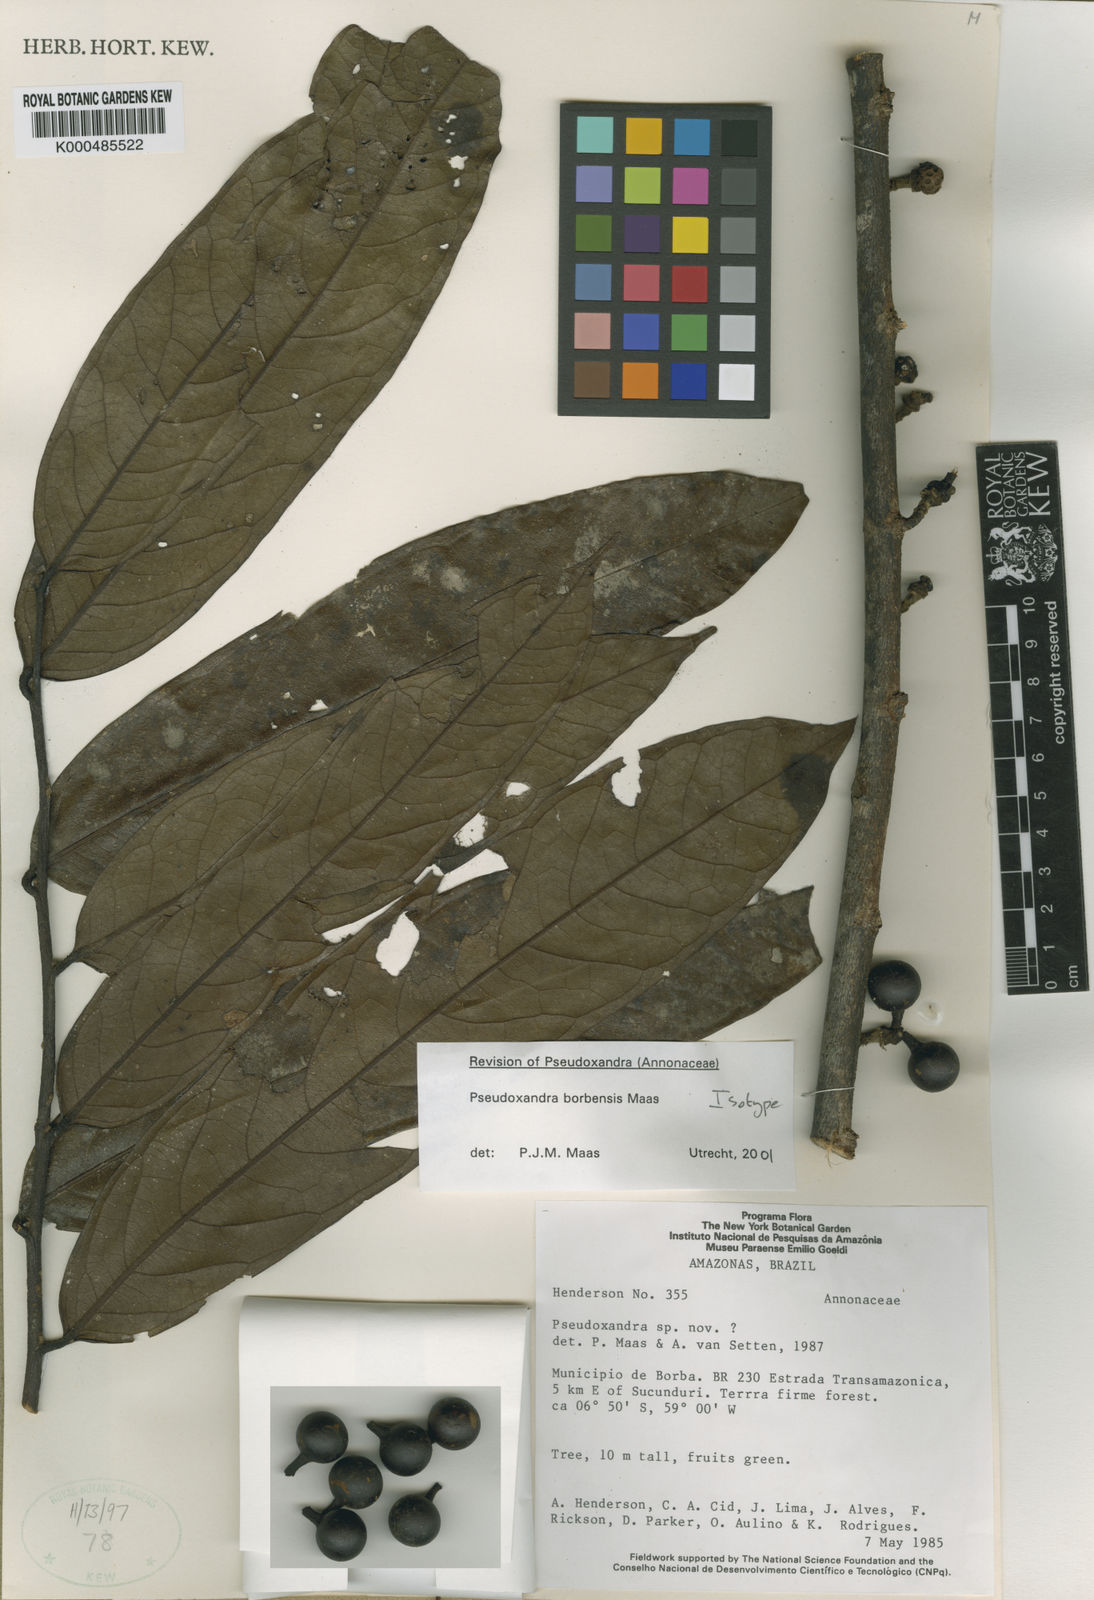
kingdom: Plantae
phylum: Tracheophyta
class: Magnoliopsida
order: Magnoliales
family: Annonaceae
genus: Pseudoxandra
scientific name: Pseudoxandra borbensis
